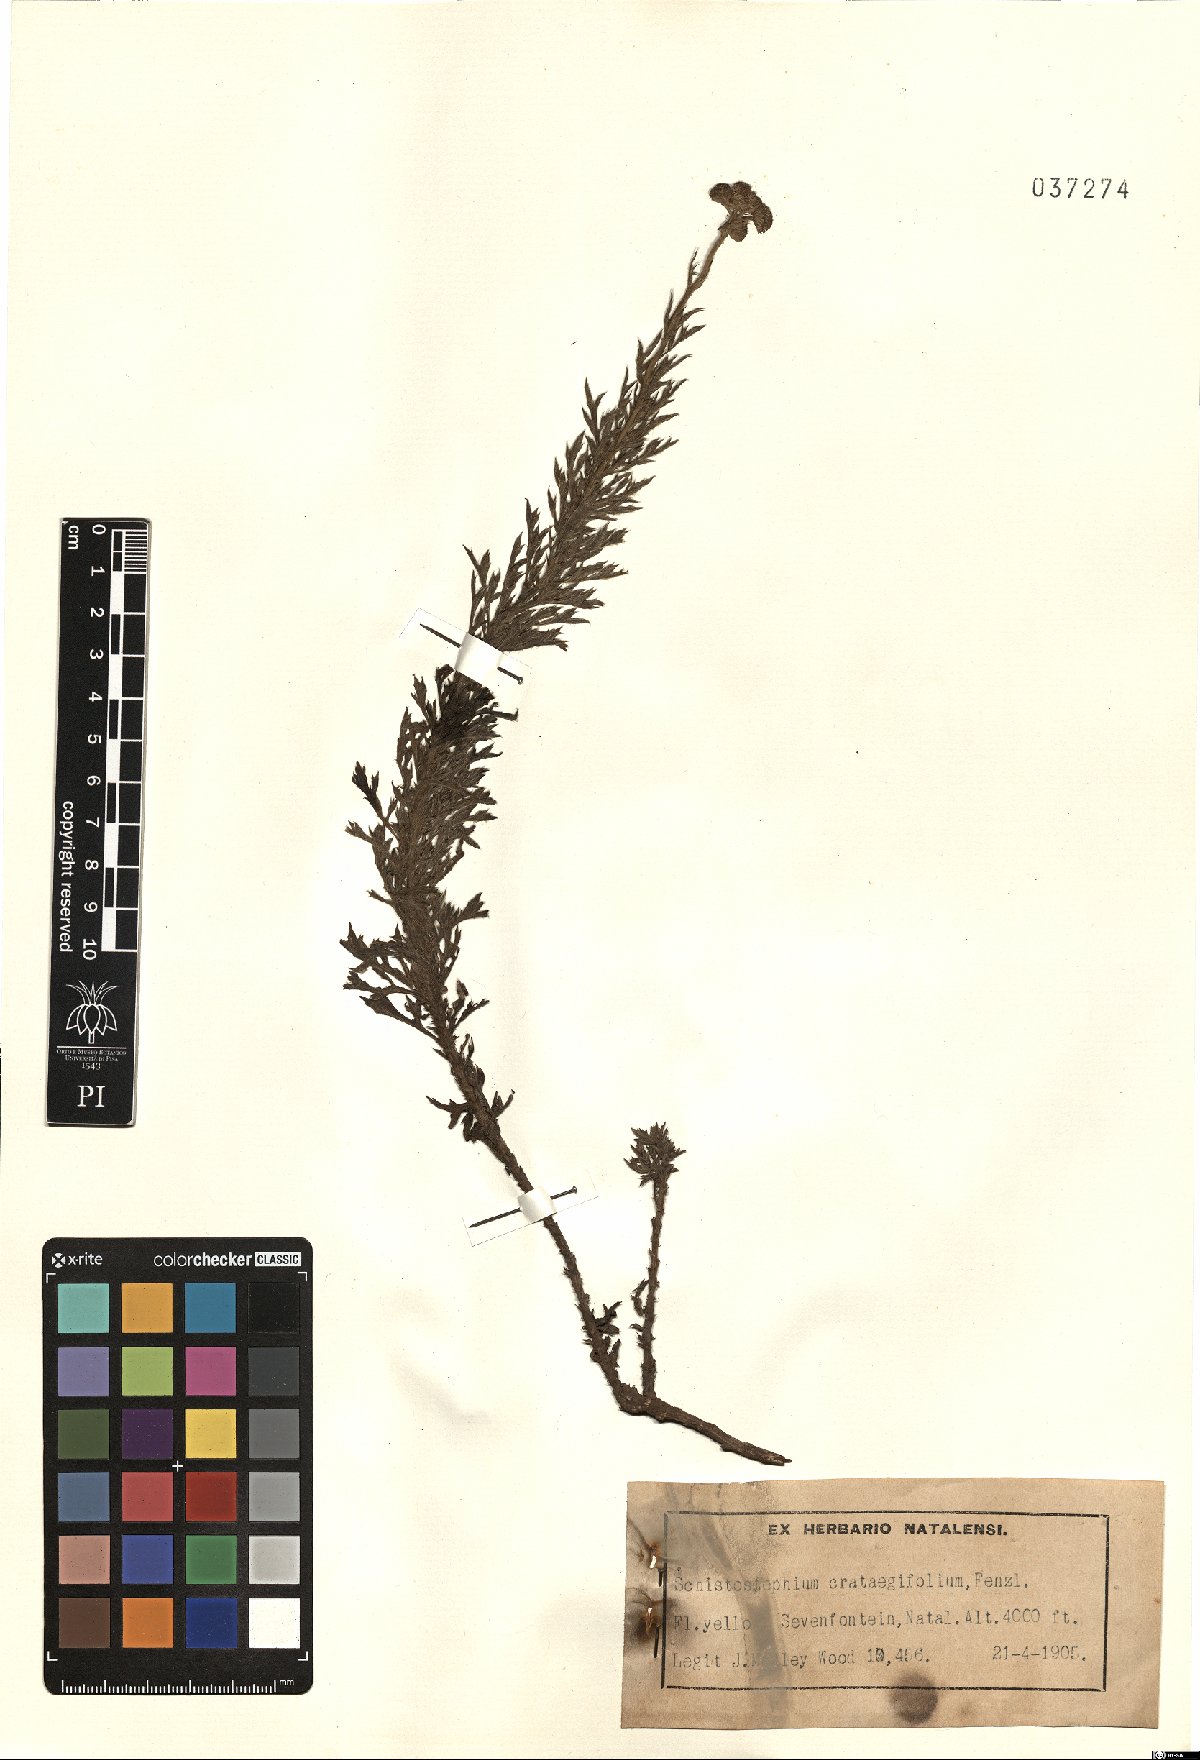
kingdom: Plantae
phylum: Tracheophyta
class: Magnoliopsida
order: Asterales
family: Asteraceae
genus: Schistostephium
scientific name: Schistostephium crataegifolium
